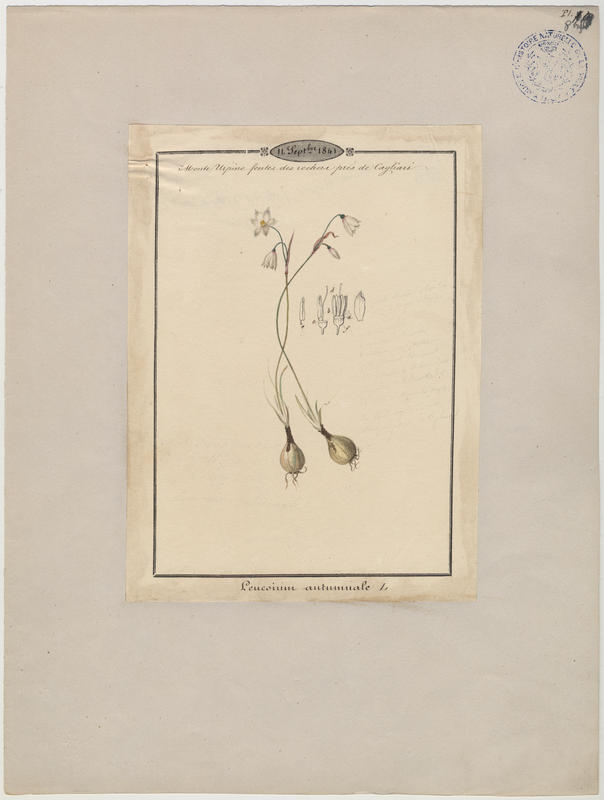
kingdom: Plantae
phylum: Tracheophyta
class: Liliopsida
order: Asparagales
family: Amaryllidaceae
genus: Acis
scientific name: Acis autumnalis
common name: Autumn snowflake
